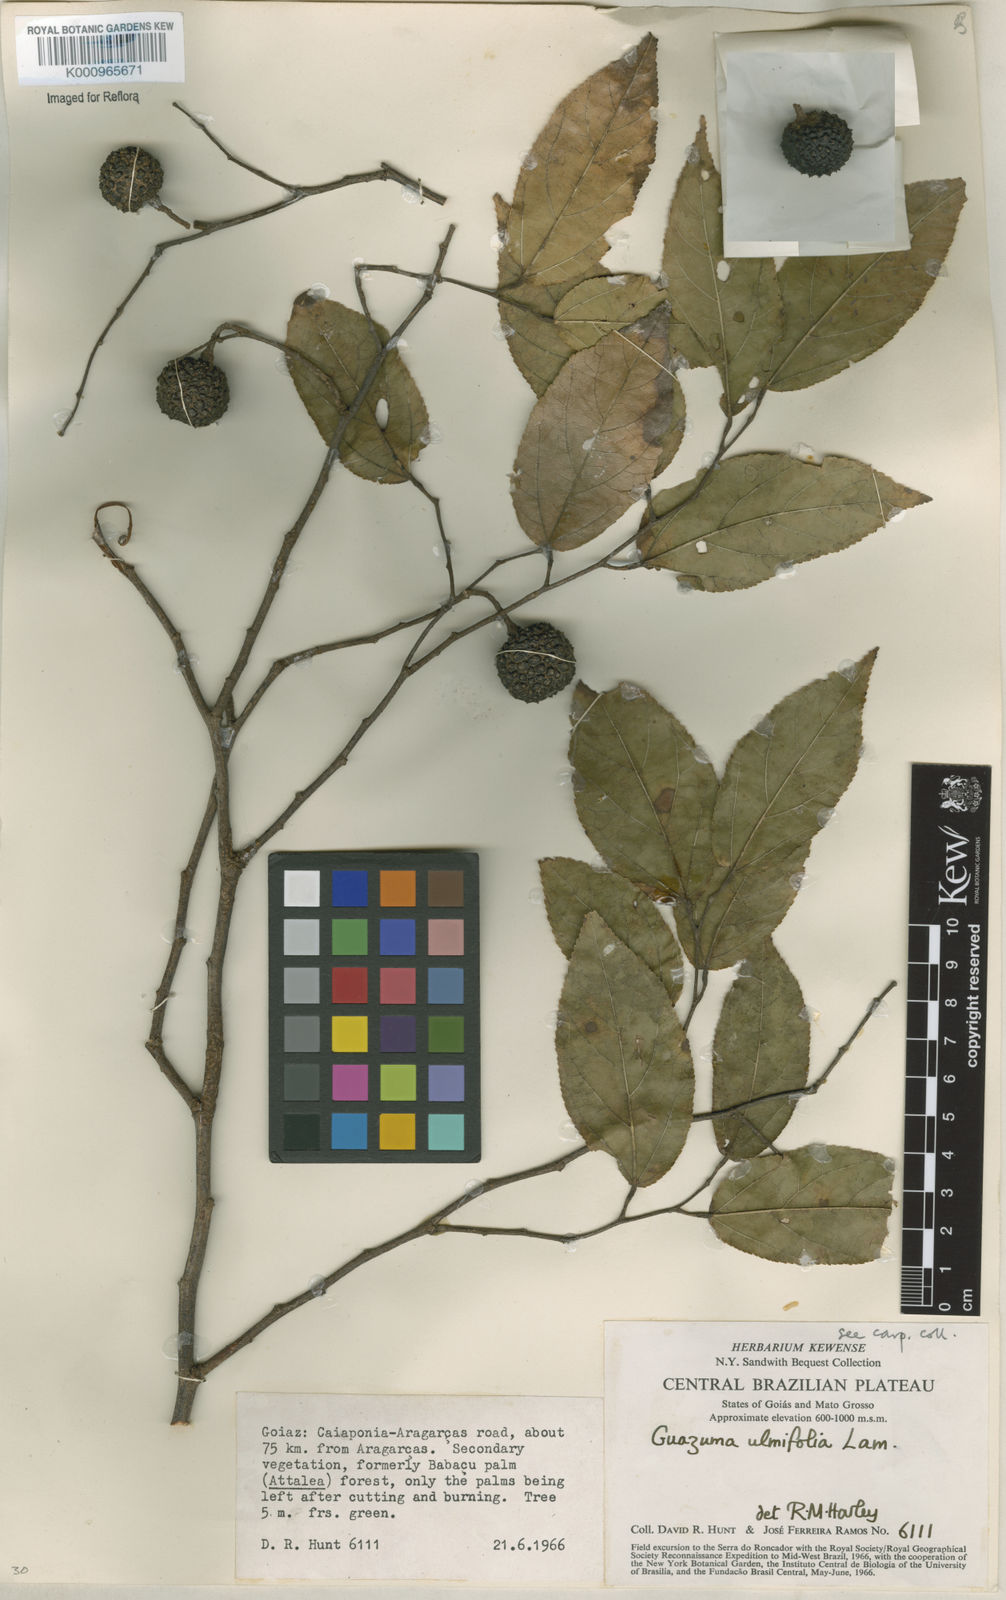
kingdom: Plantae
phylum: Tracheophyta
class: Magnoliopsida
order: Malvales
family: Malvaceae
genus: Guazuma
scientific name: Guazuma ulmifolia
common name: Bastard-cedar
